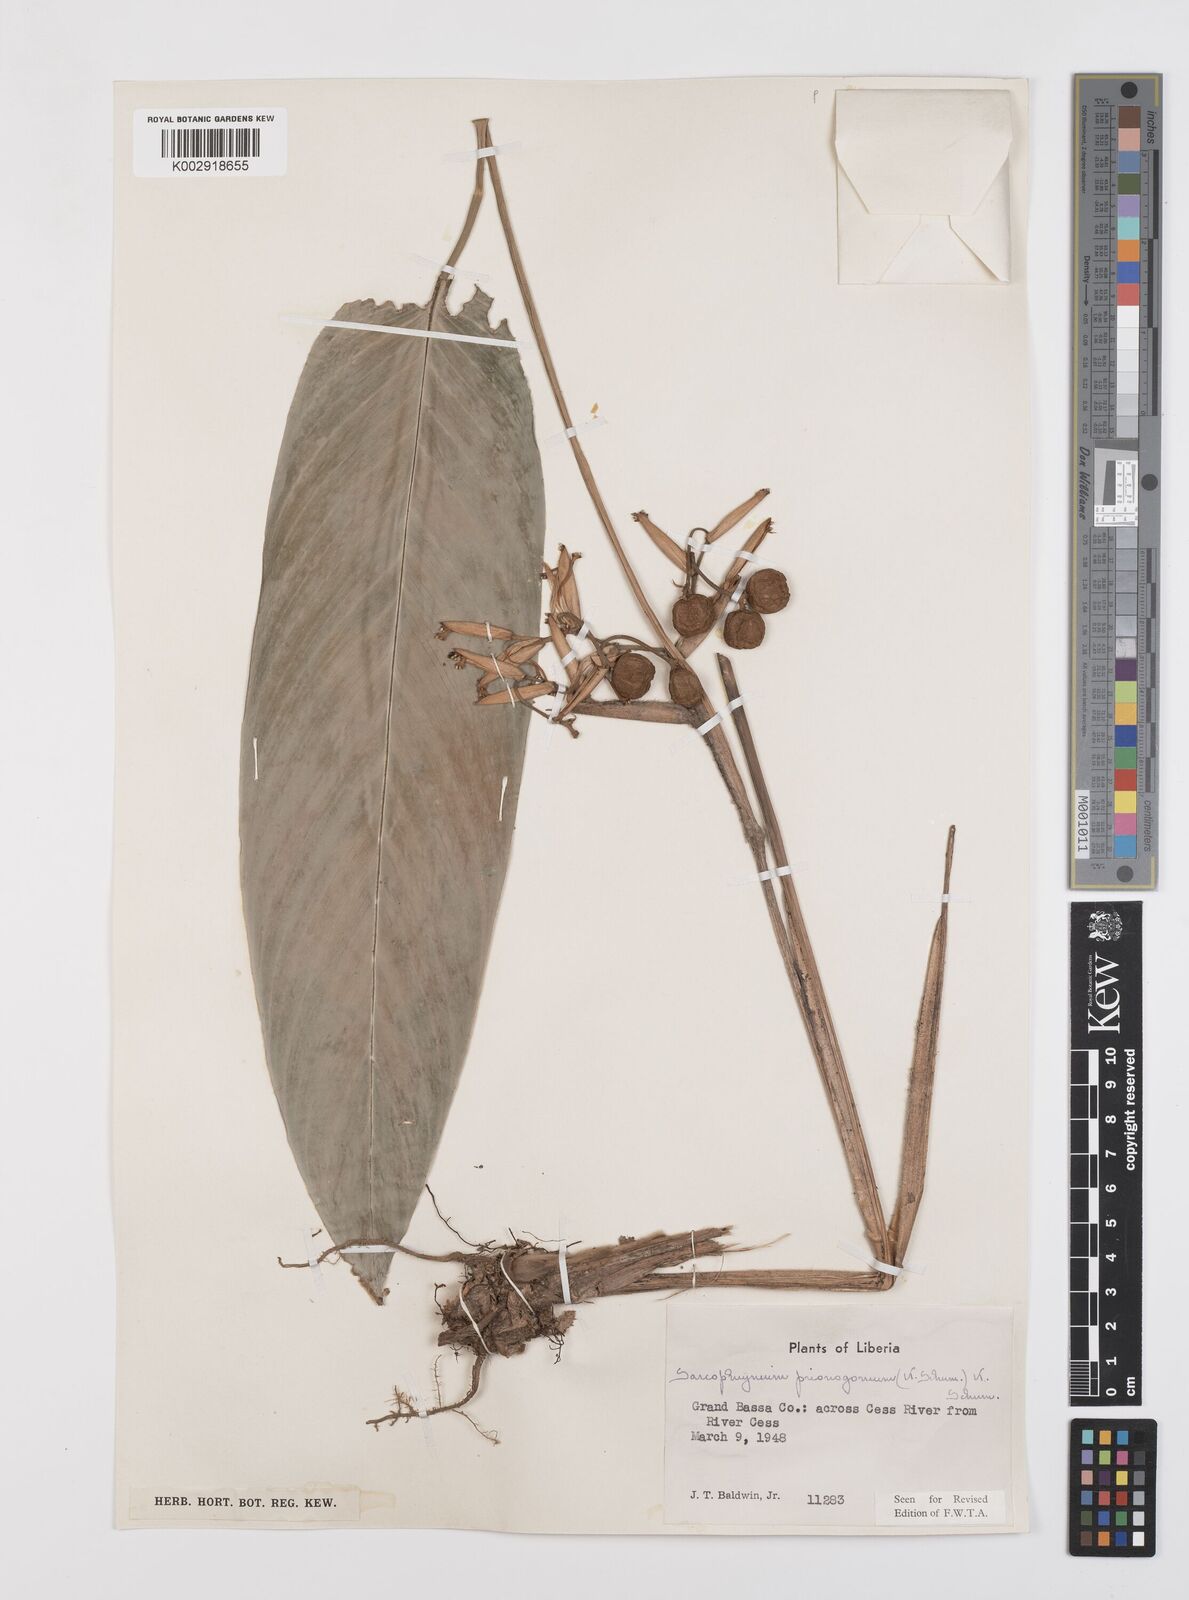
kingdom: Plantae
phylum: Tracheophyta
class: Liliopsida
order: Zingiberales
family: Marantaceae
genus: Sarcophrynium
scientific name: Sarcophrynium prionogonium
